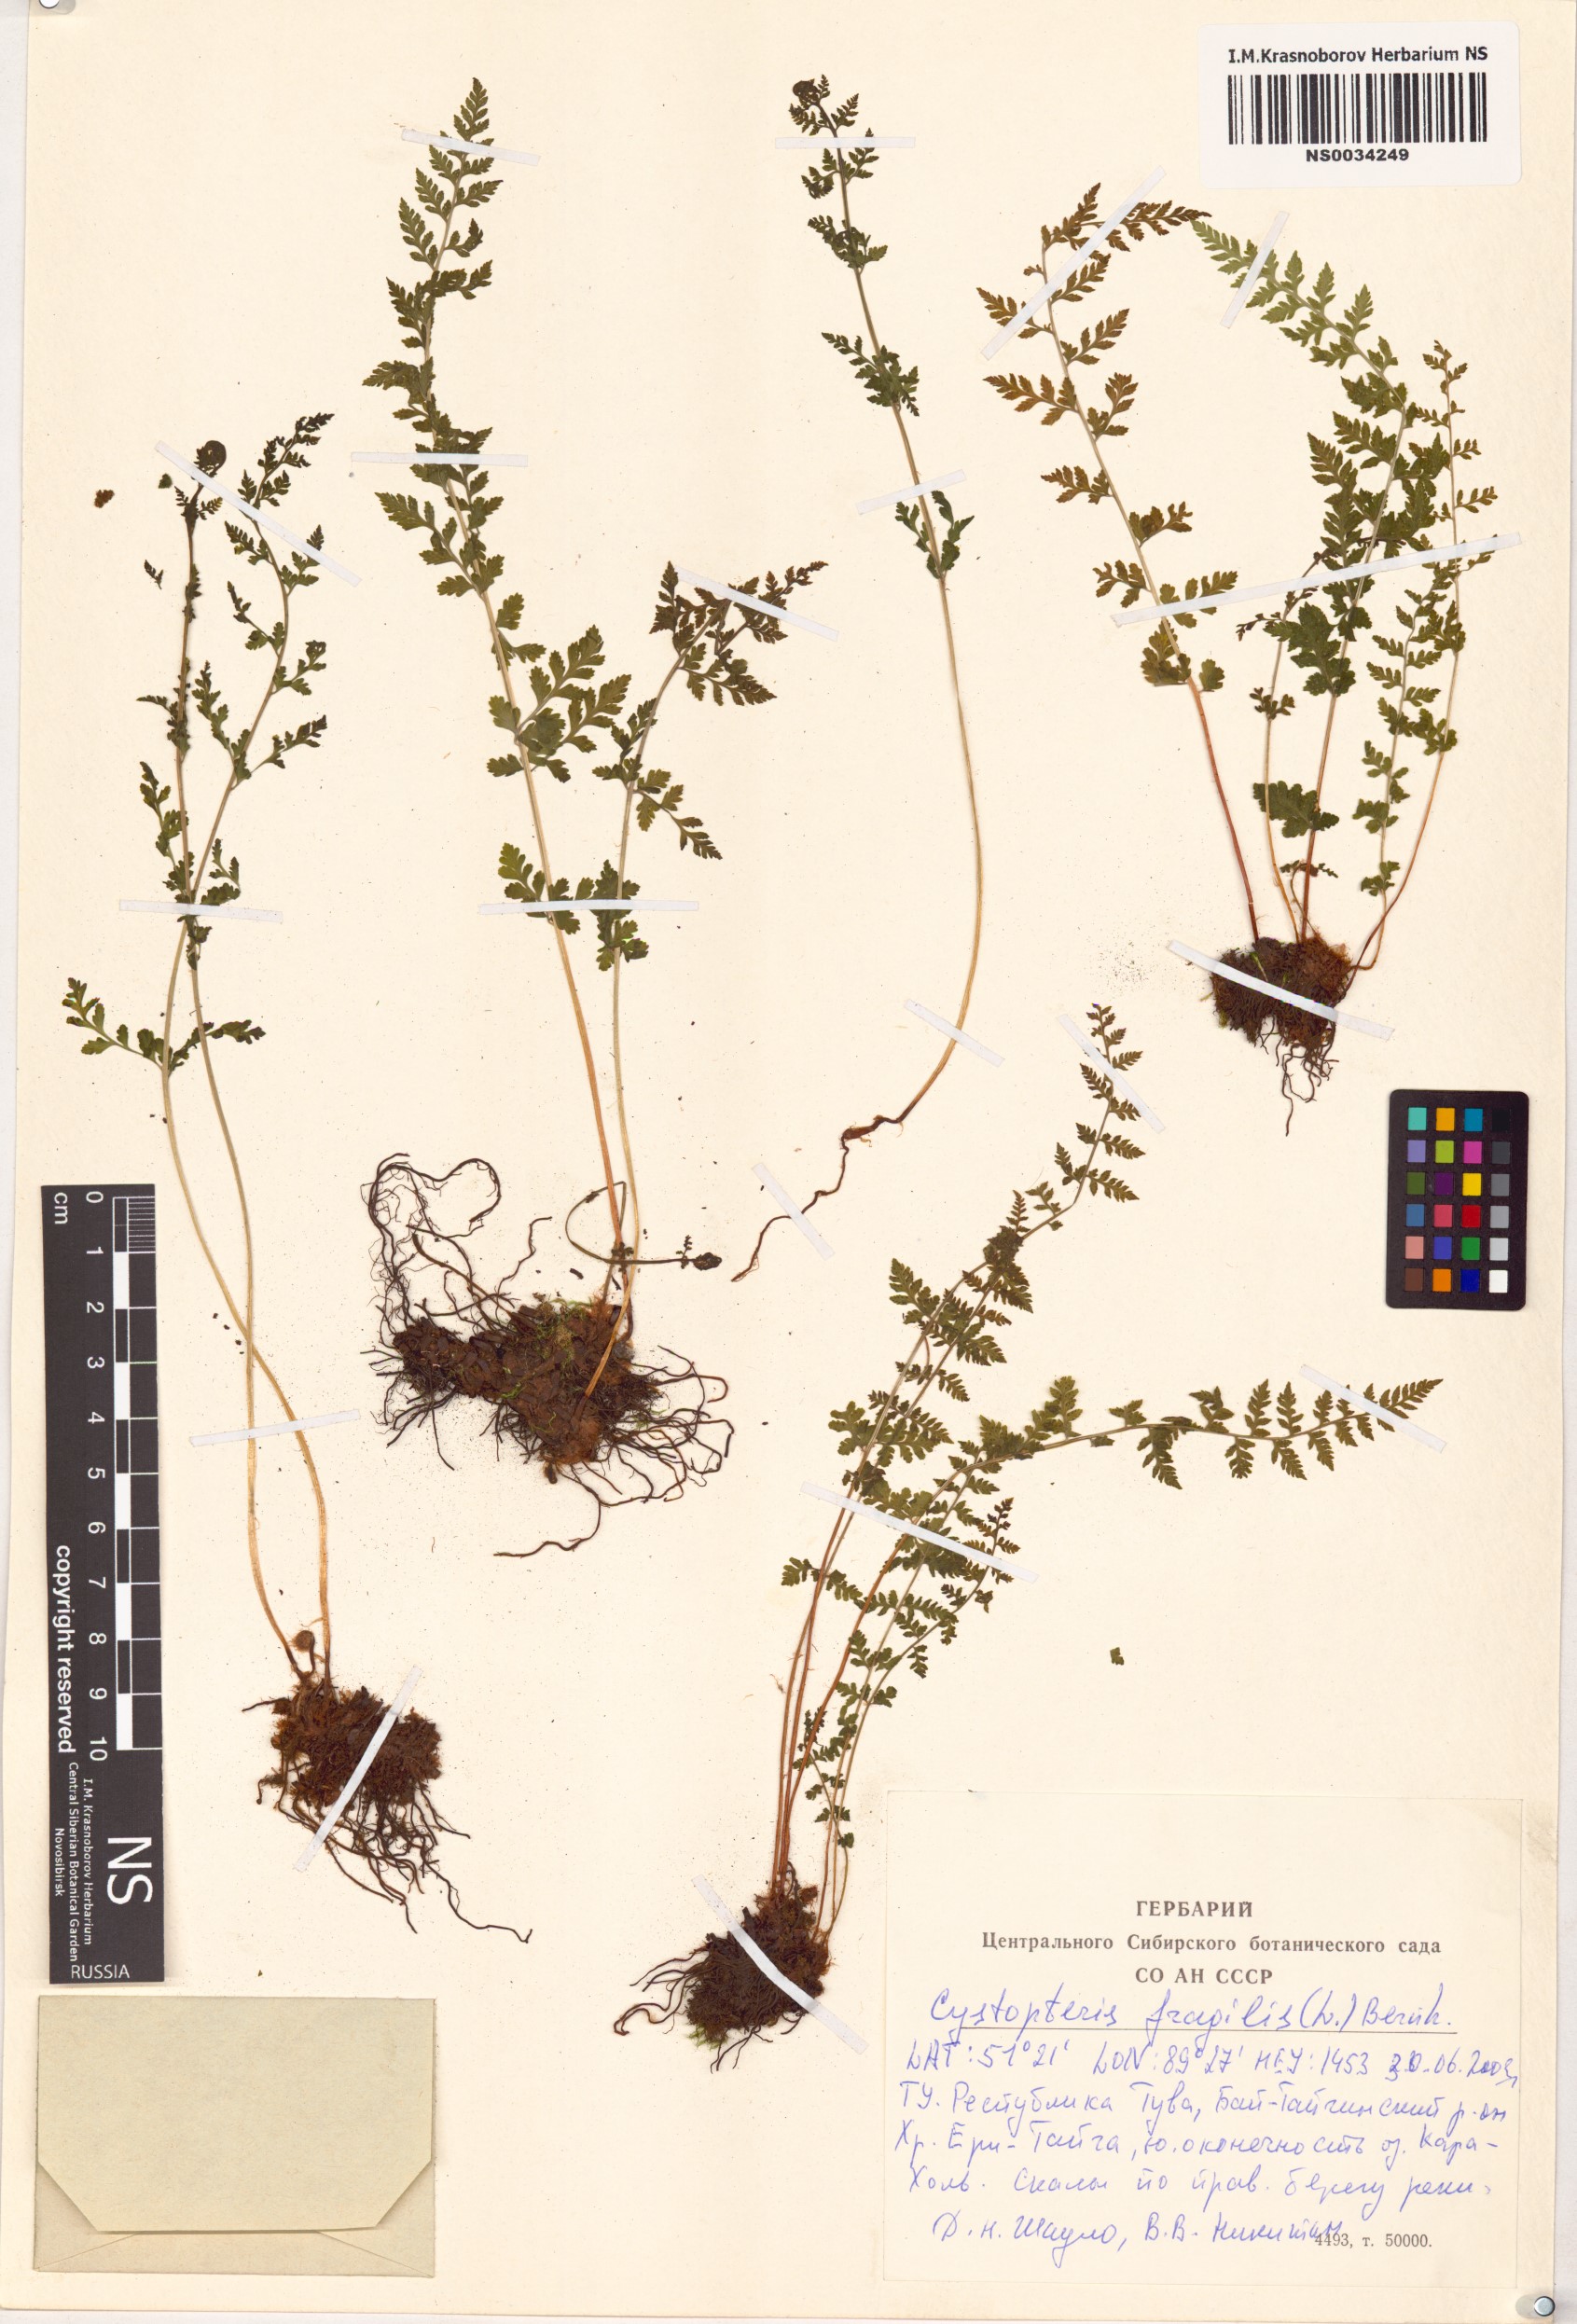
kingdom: Plantae
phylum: Tracheophyta
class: Polypodiopsida
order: Polypodiales
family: Cystopteridaceae
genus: Cystopteris
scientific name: Cystopteris fragilis
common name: Brittle bladder fern
